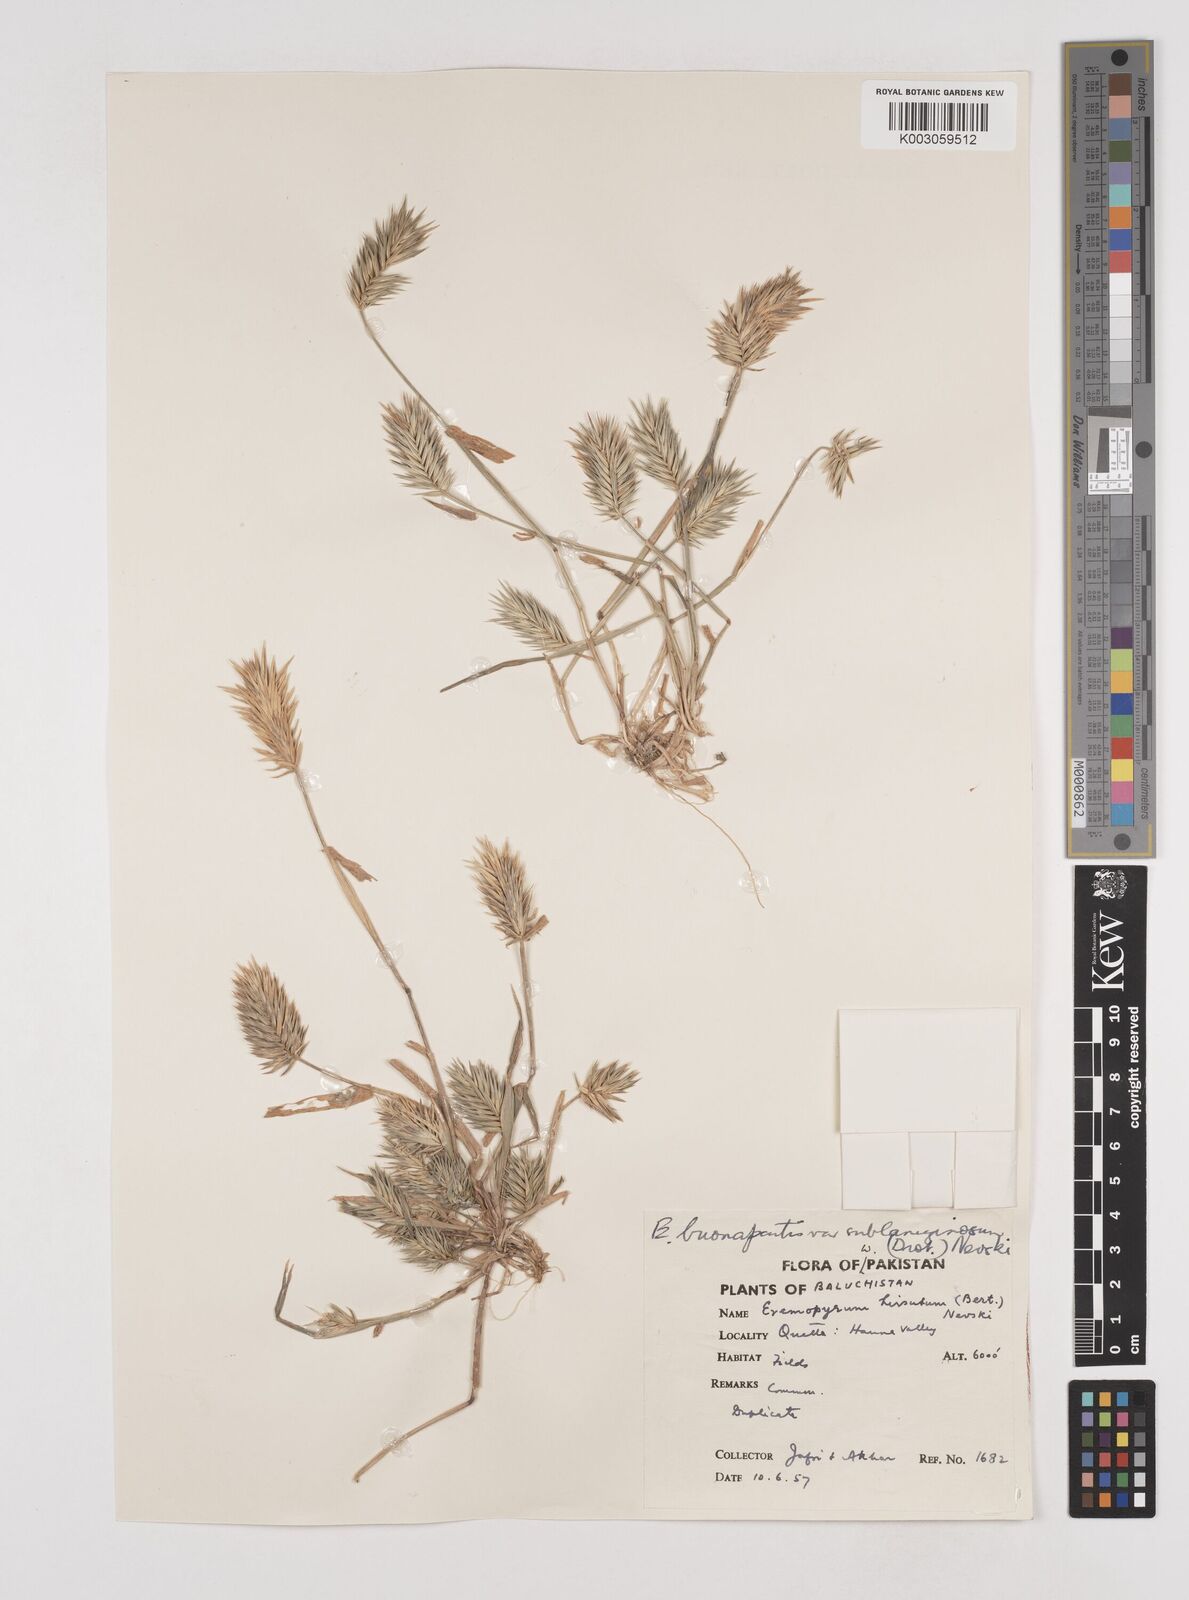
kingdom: Plantae
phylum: Tracheophyta
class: Liliopsida
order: Poales
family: Poaceae
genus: Eremopyrum
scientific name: Eremopyrum bonaepartis
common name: Tapertip false wheatgrass
